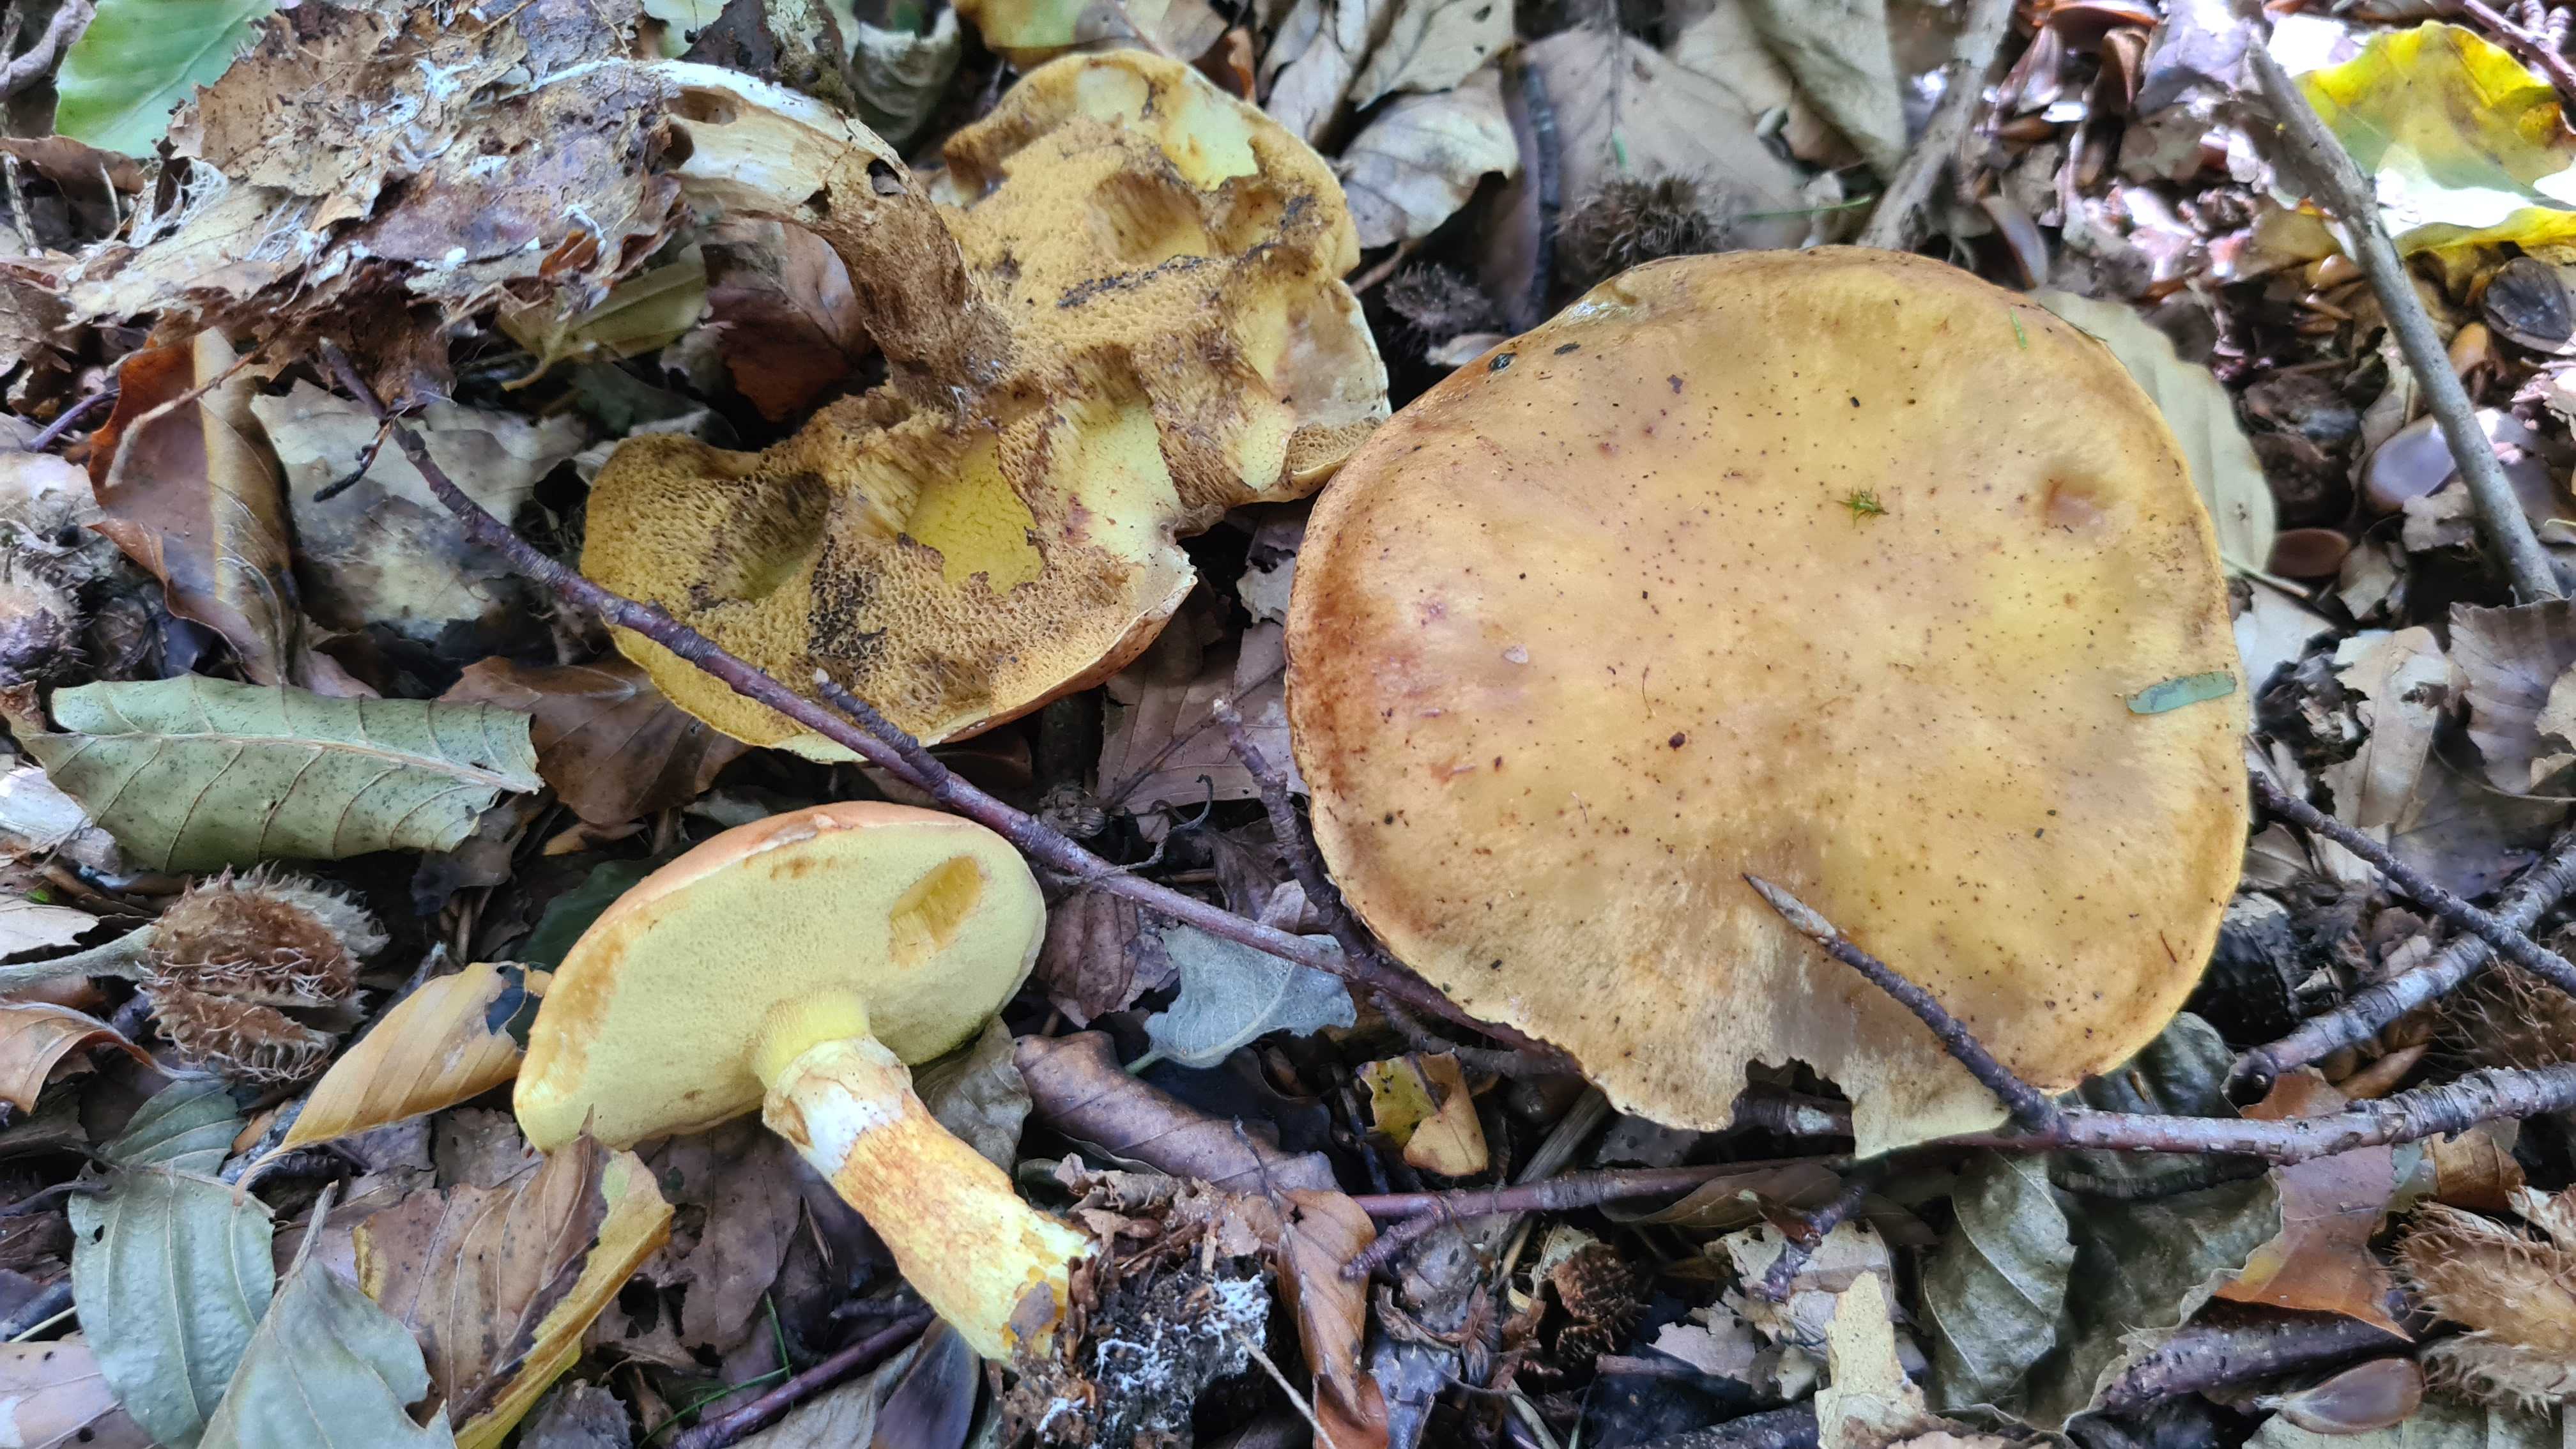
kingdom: Fungi
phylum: Basidiomycota
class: Agaricomycetes
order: Boletales
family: Suillaceae
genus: Suillus
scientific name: Suillus grevillei
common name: lærke-slimrørhat
